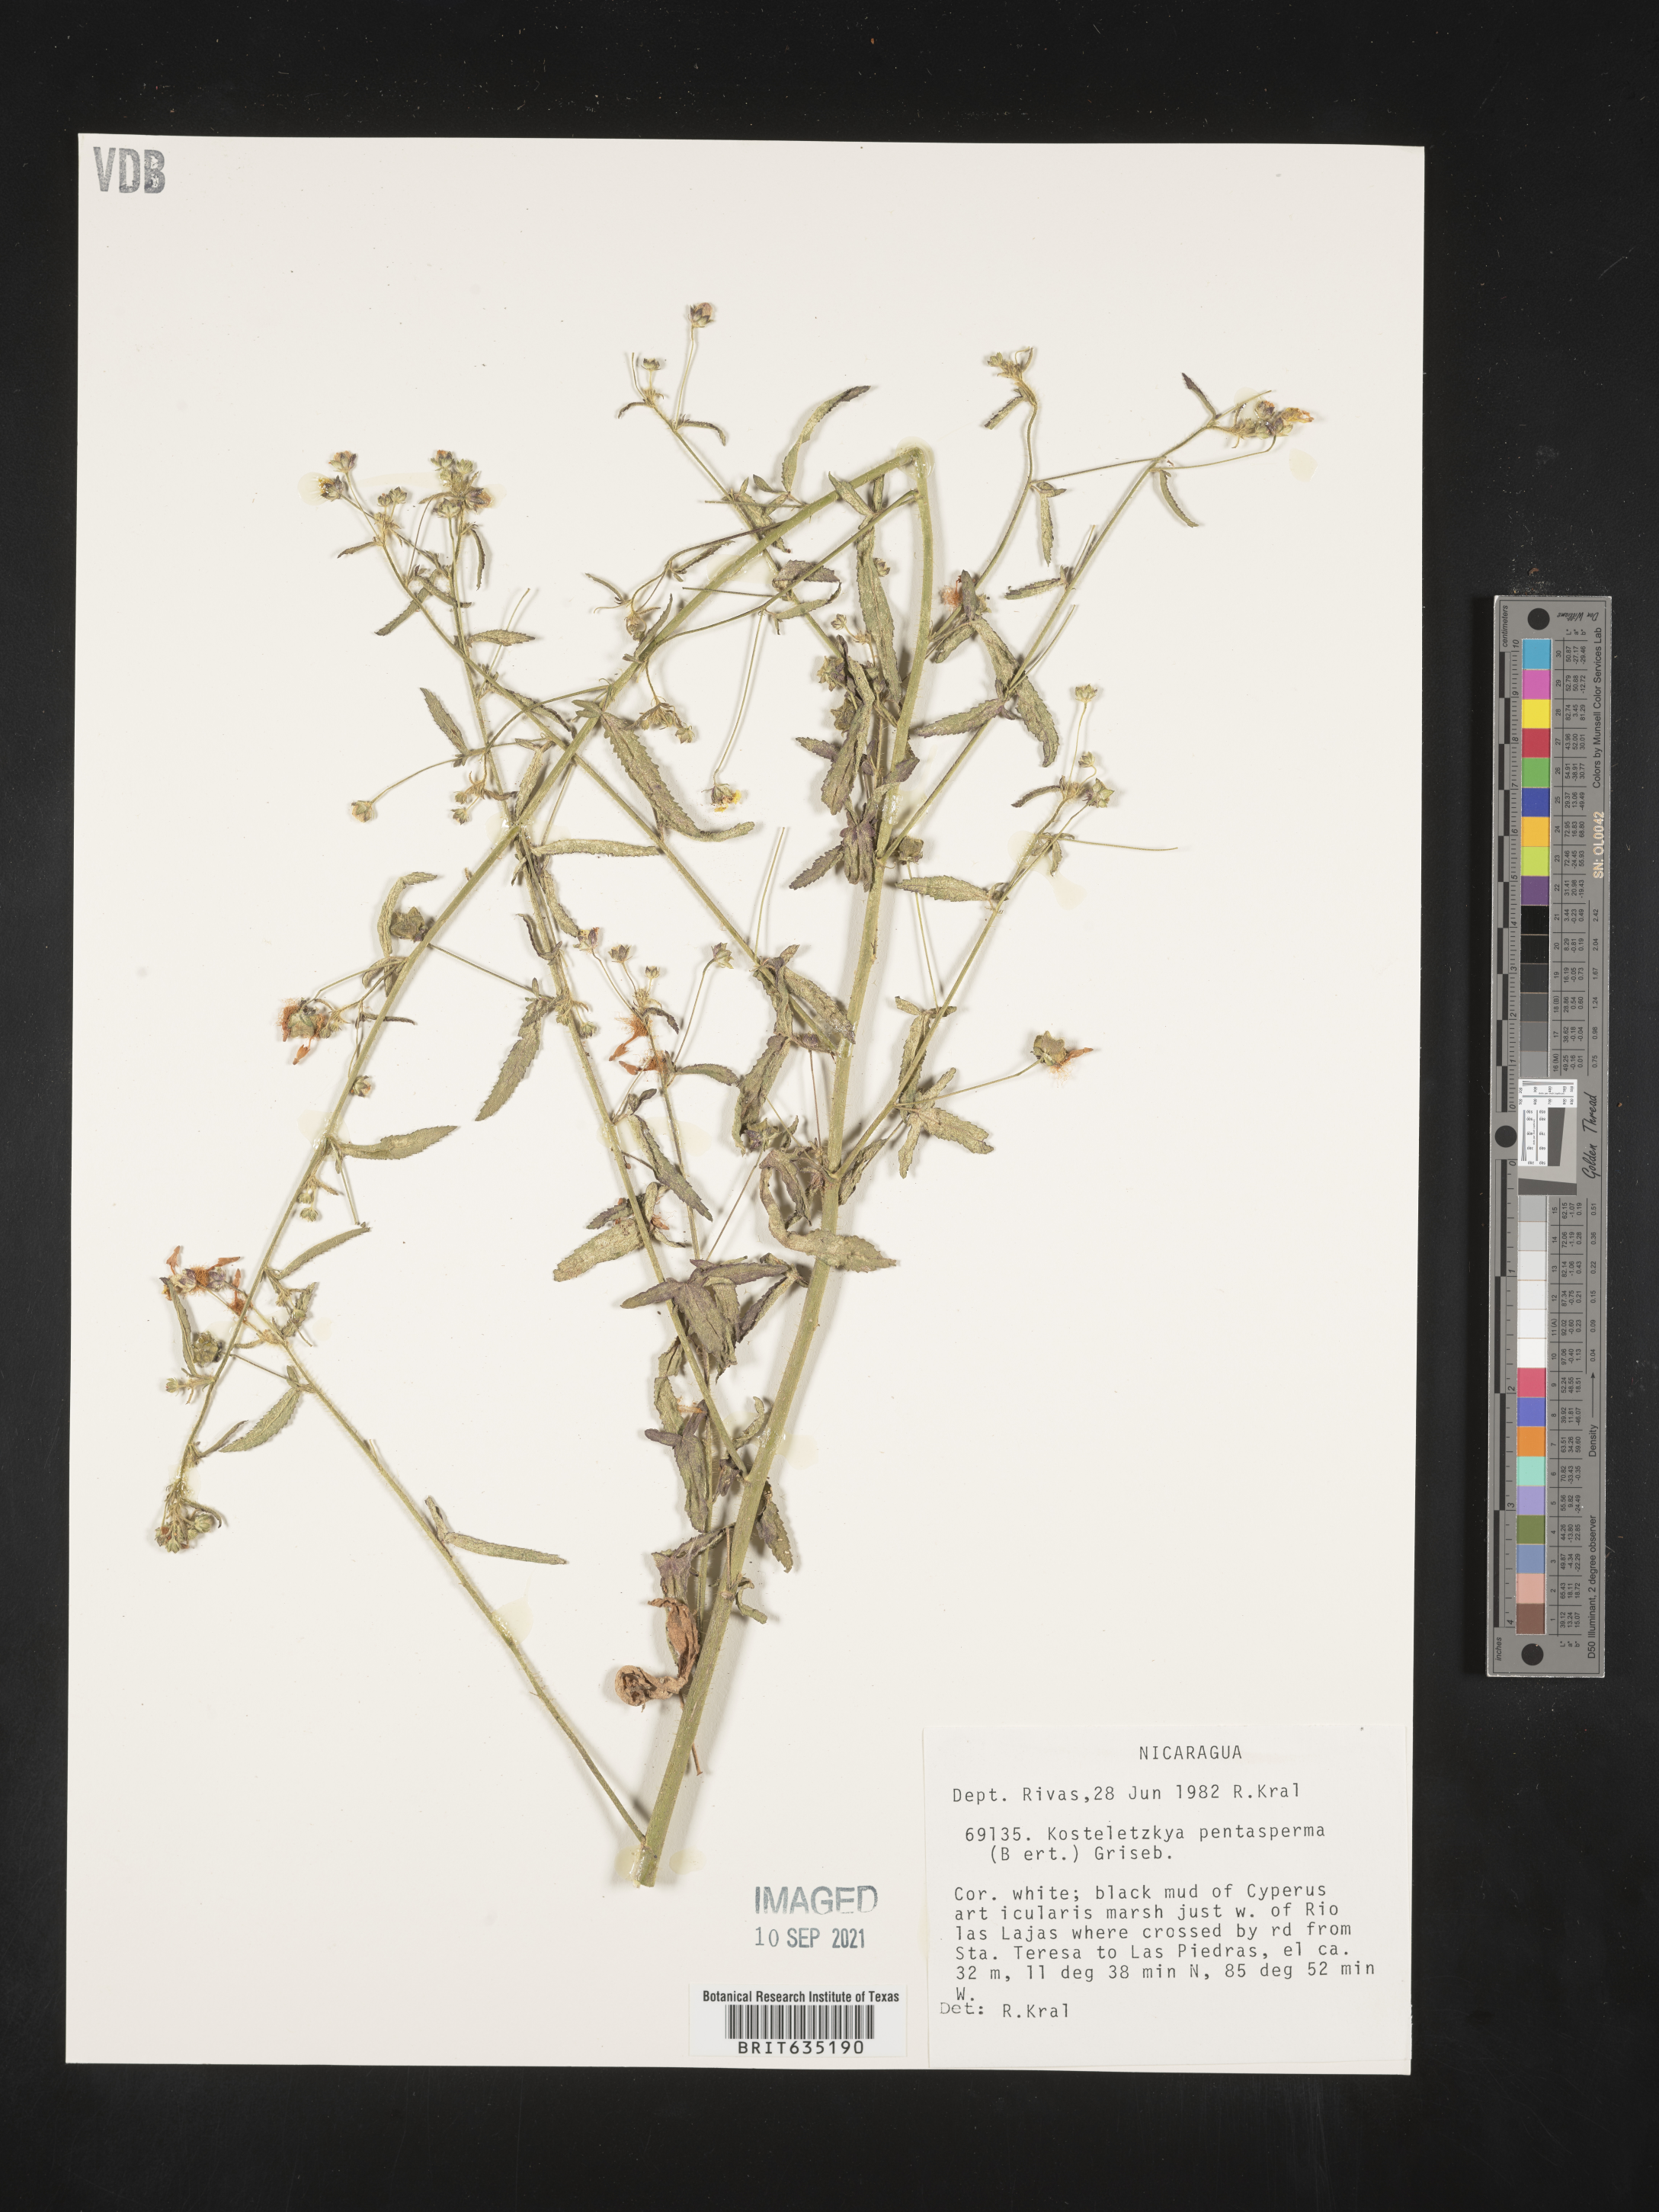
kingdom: Plantae
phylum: Tracheophyta
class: Magnoliopsida
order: Malvales
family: Malvaceae
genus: Kosteletzkya
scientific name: Kosteletzkya
